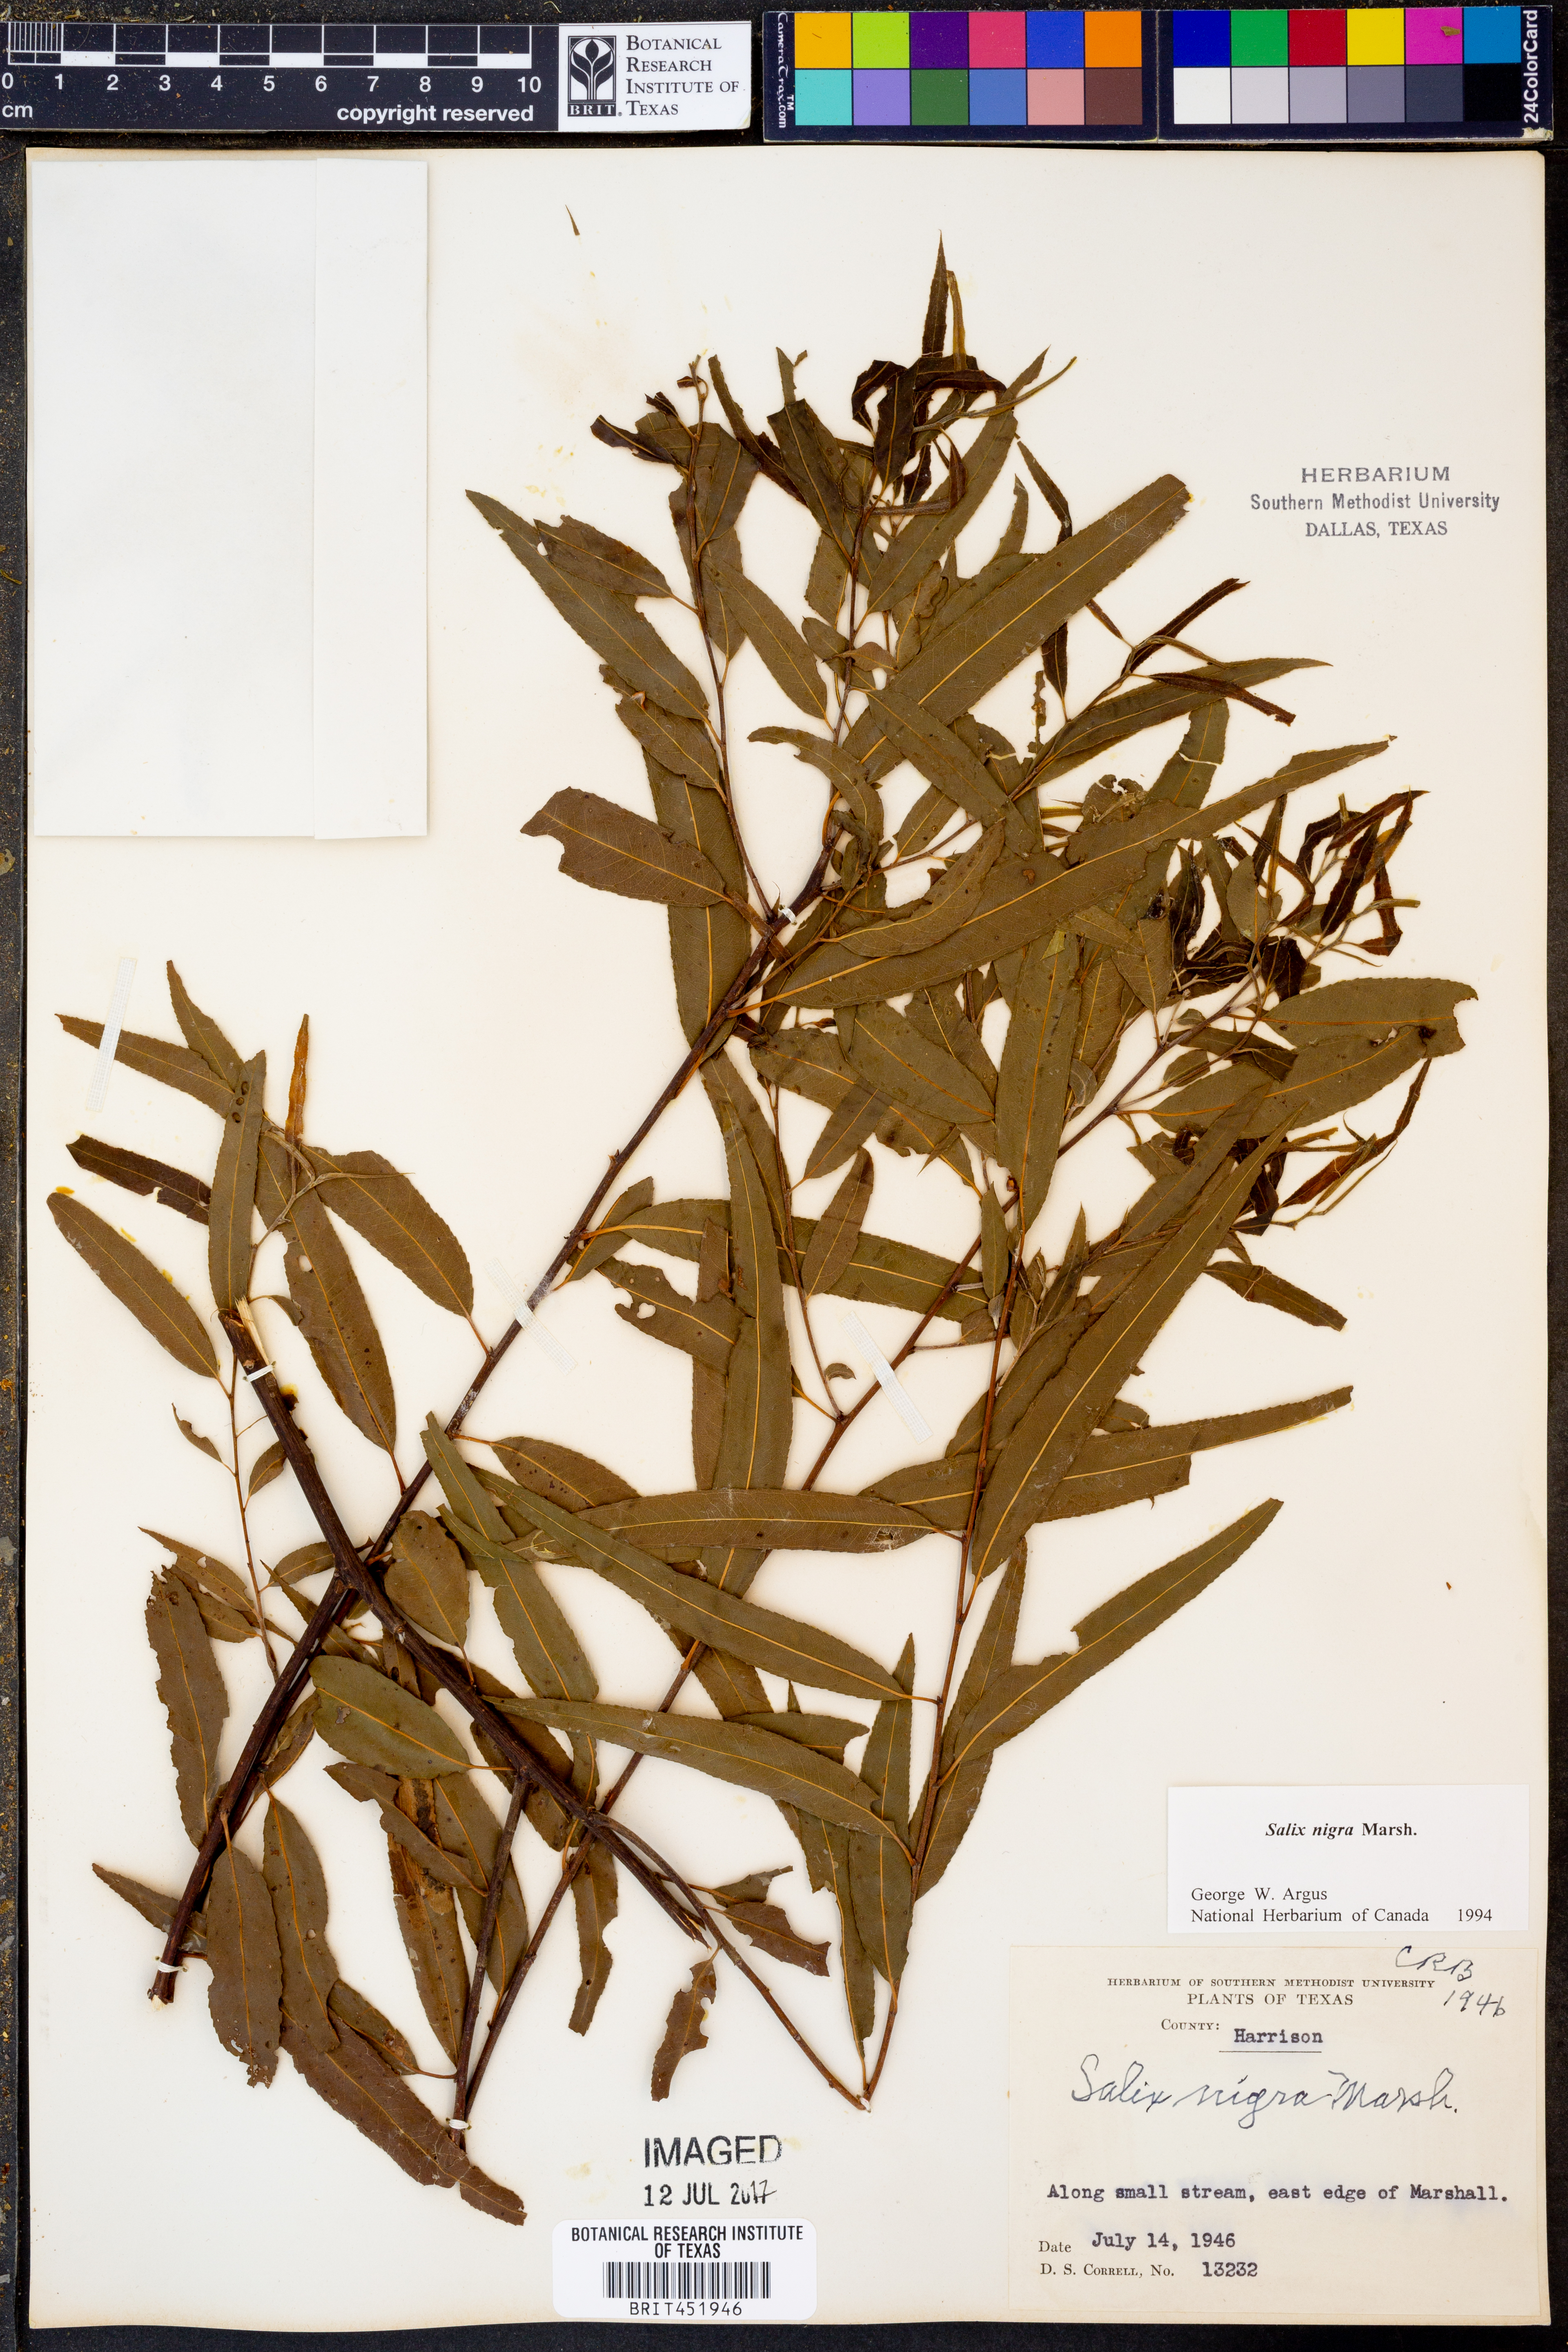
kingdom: Plantae
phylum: Tracheophyta
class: Magnoliopsida
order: Malpighiales
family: Salicaceae
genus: Salix
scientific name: Salix nigra
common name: Black willow
